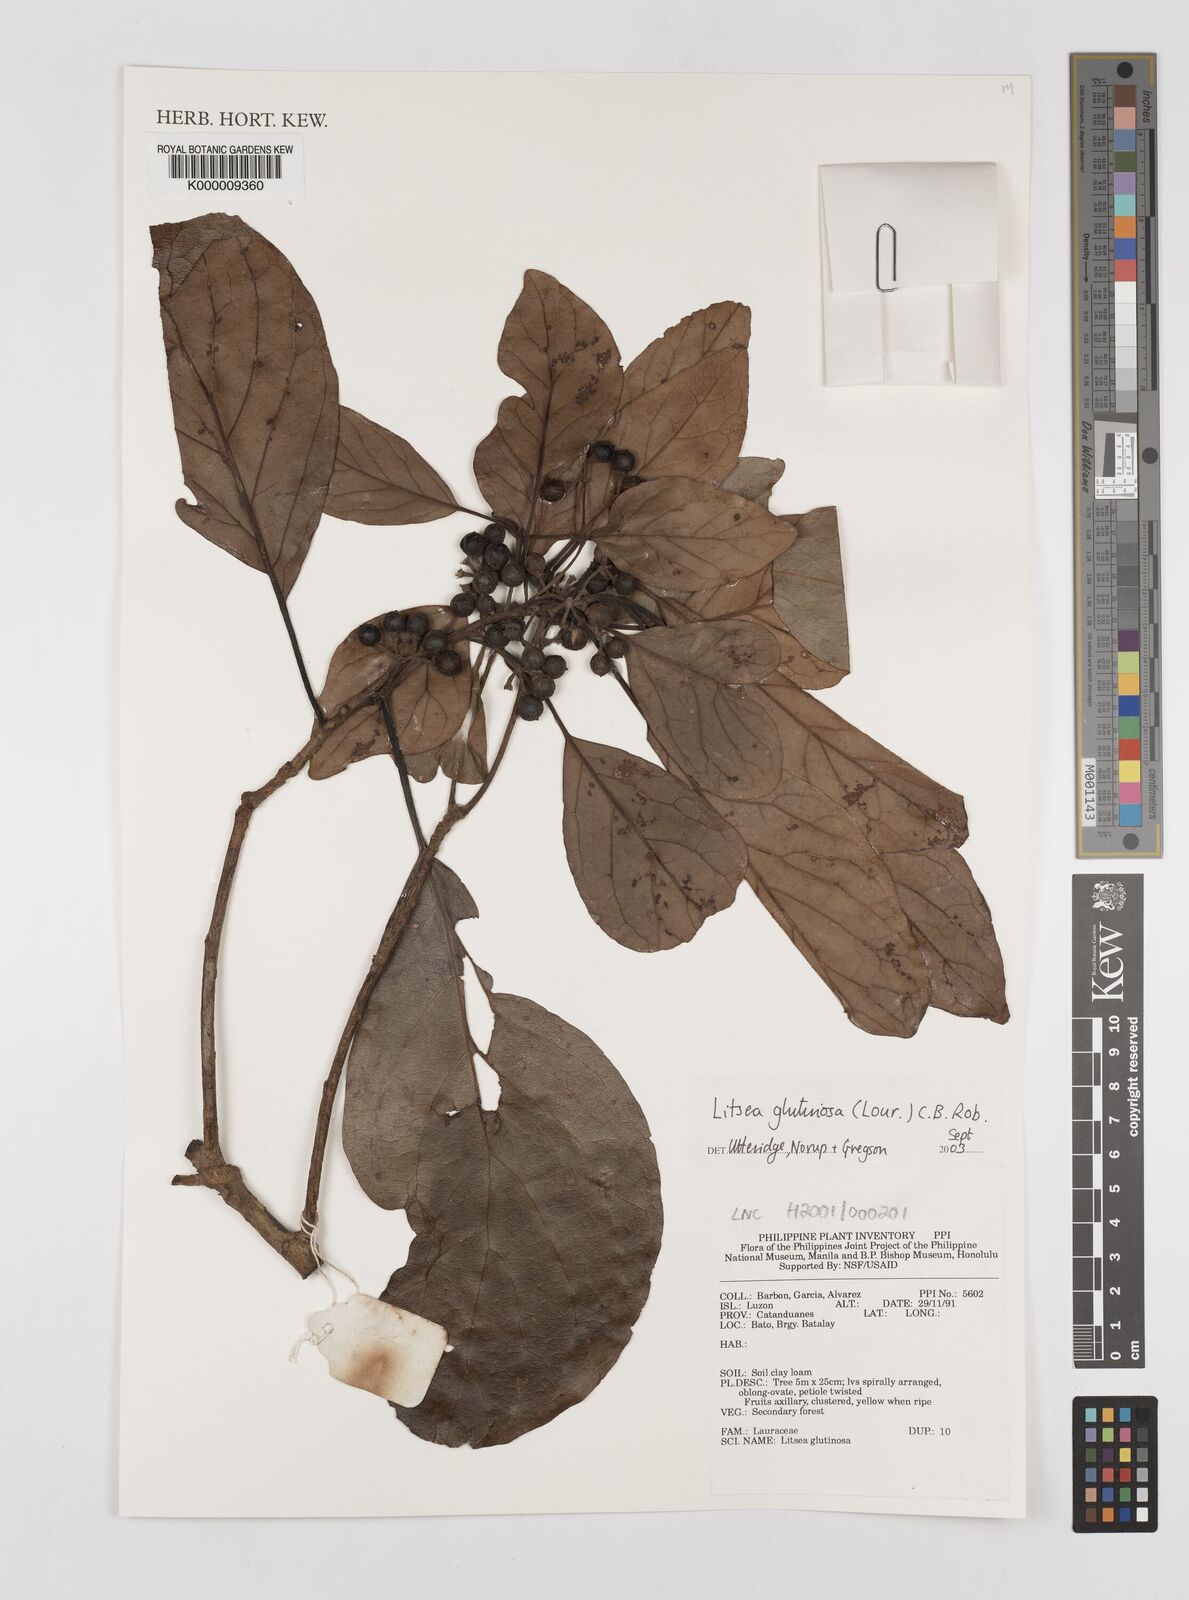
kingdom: Plantae
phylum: Tracheophyta
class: Magnoliopsida
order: Laurales
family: Lauraceae
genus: Litsea
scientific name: Litsea glutinosa
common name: Indian-laurel
